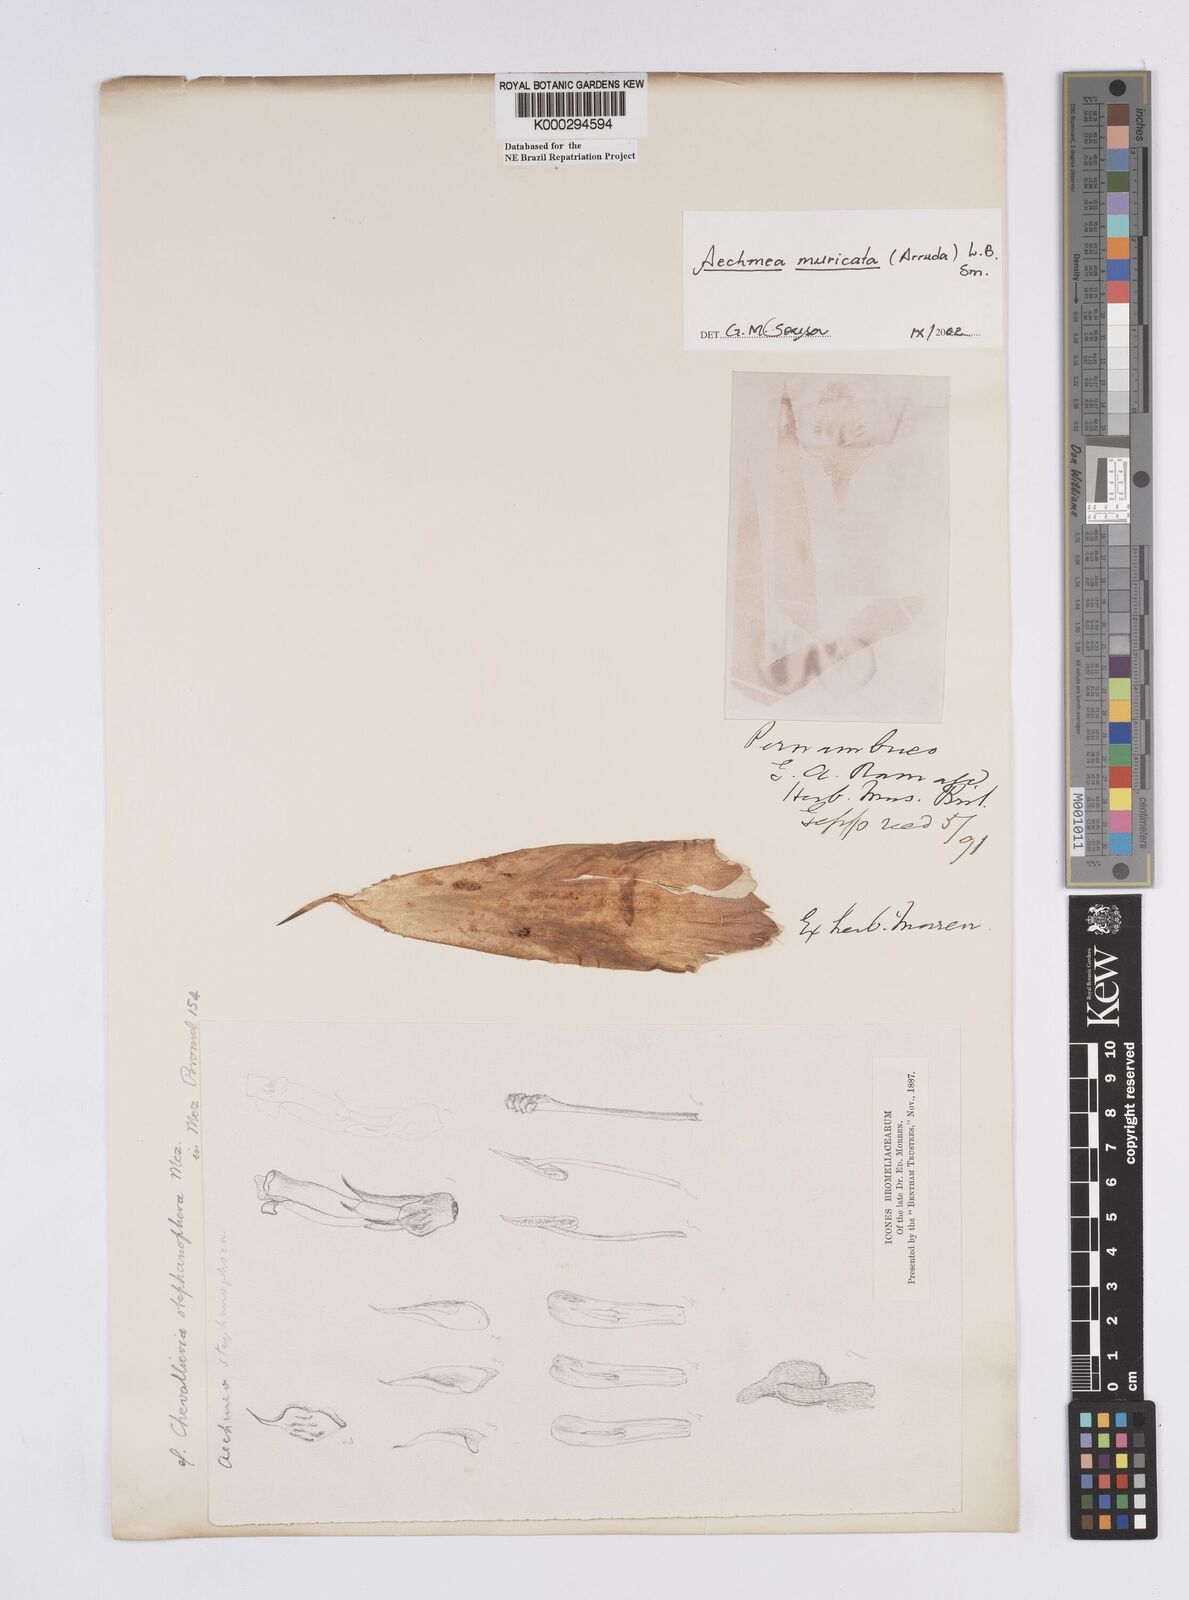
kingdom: Plantae
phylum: Tracheophyta
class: Liliopsida
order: Poales
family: Bromeliaceae
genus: Aechmea
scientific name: Aechmea muricata
